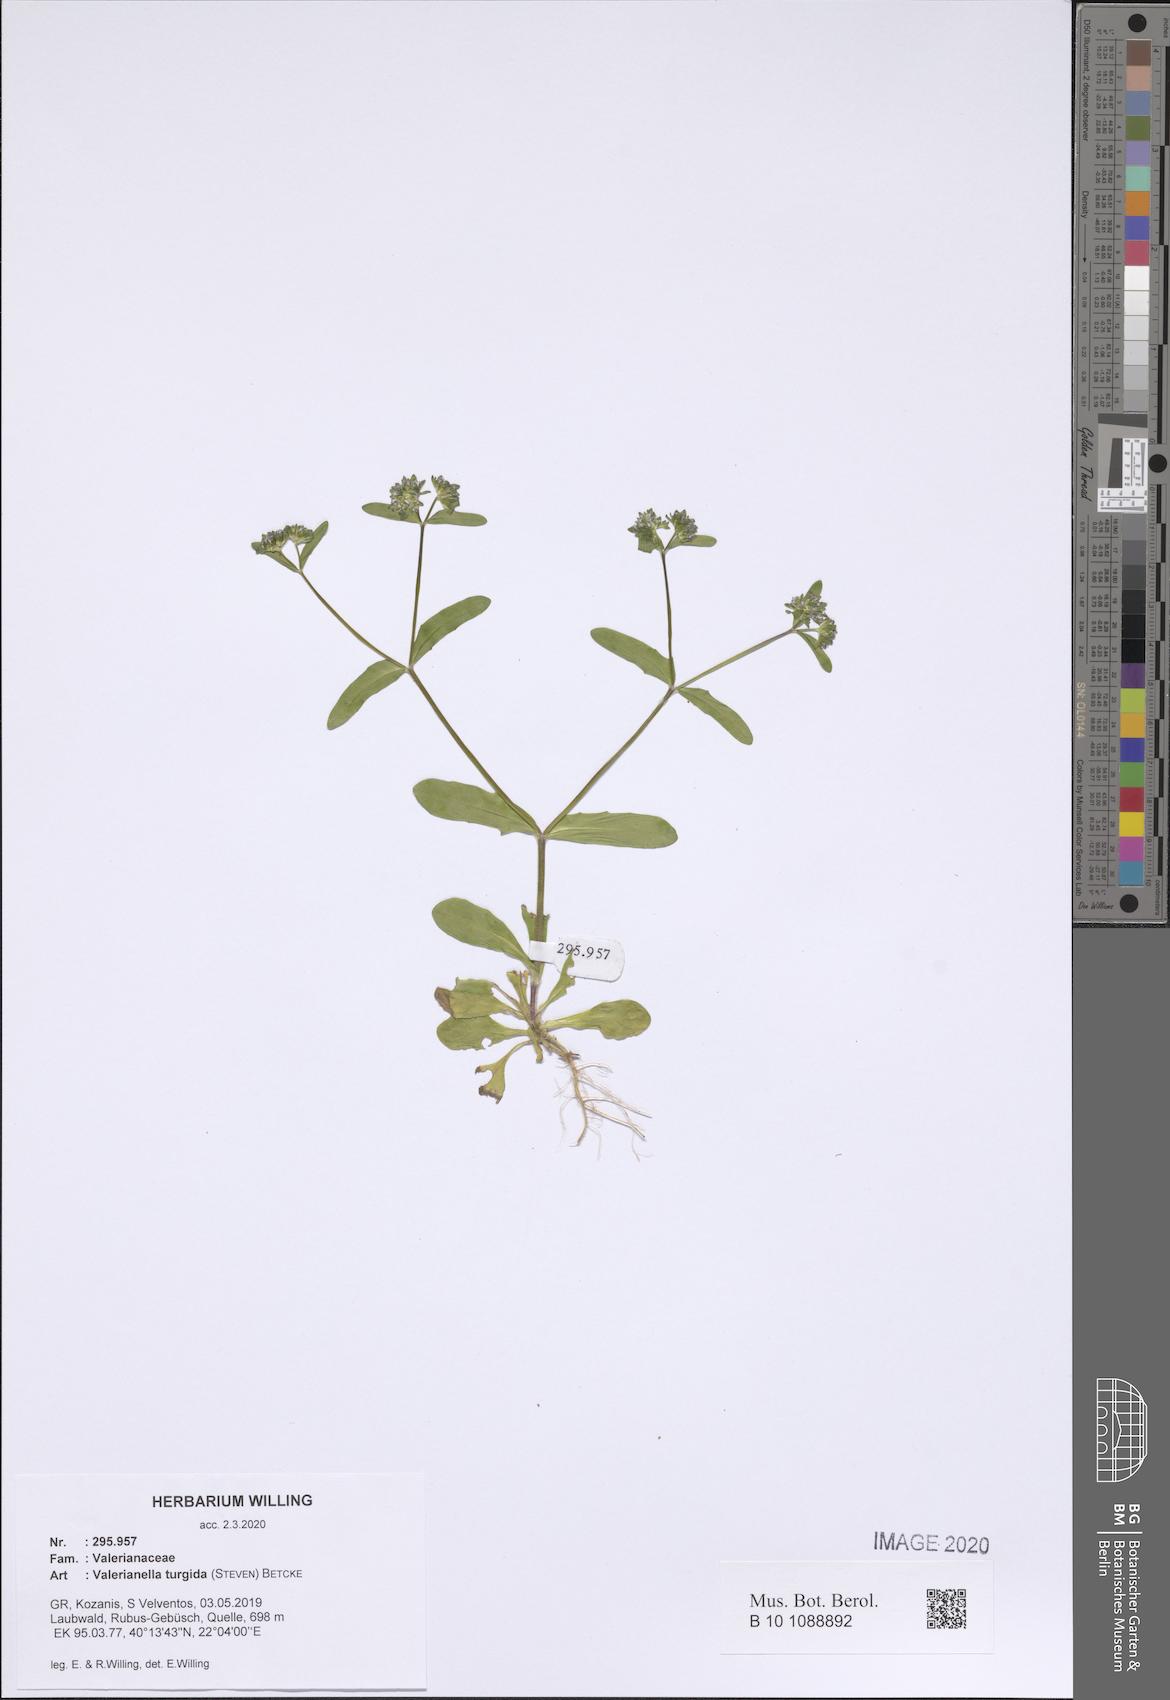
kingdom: Plantae
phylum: Tracheophyta
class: Magnoliopsida
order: Dipsacales
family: Caprifoliaceae
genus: Valerianella
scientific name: Valerianella turgida
